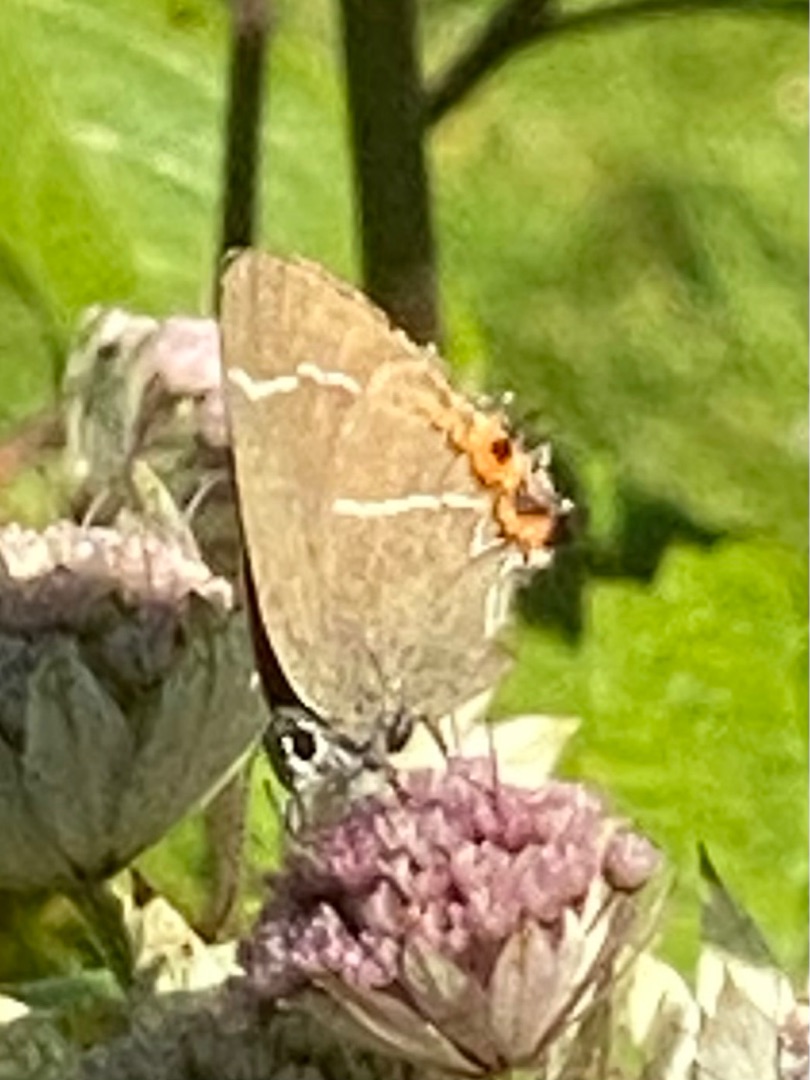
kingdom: Animalia
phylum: Arthropoda
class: Insecta
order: Lepidoptera
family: Lycaenidae
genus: Satyrium
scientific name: Satyrium w-album
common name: Det hvide W
